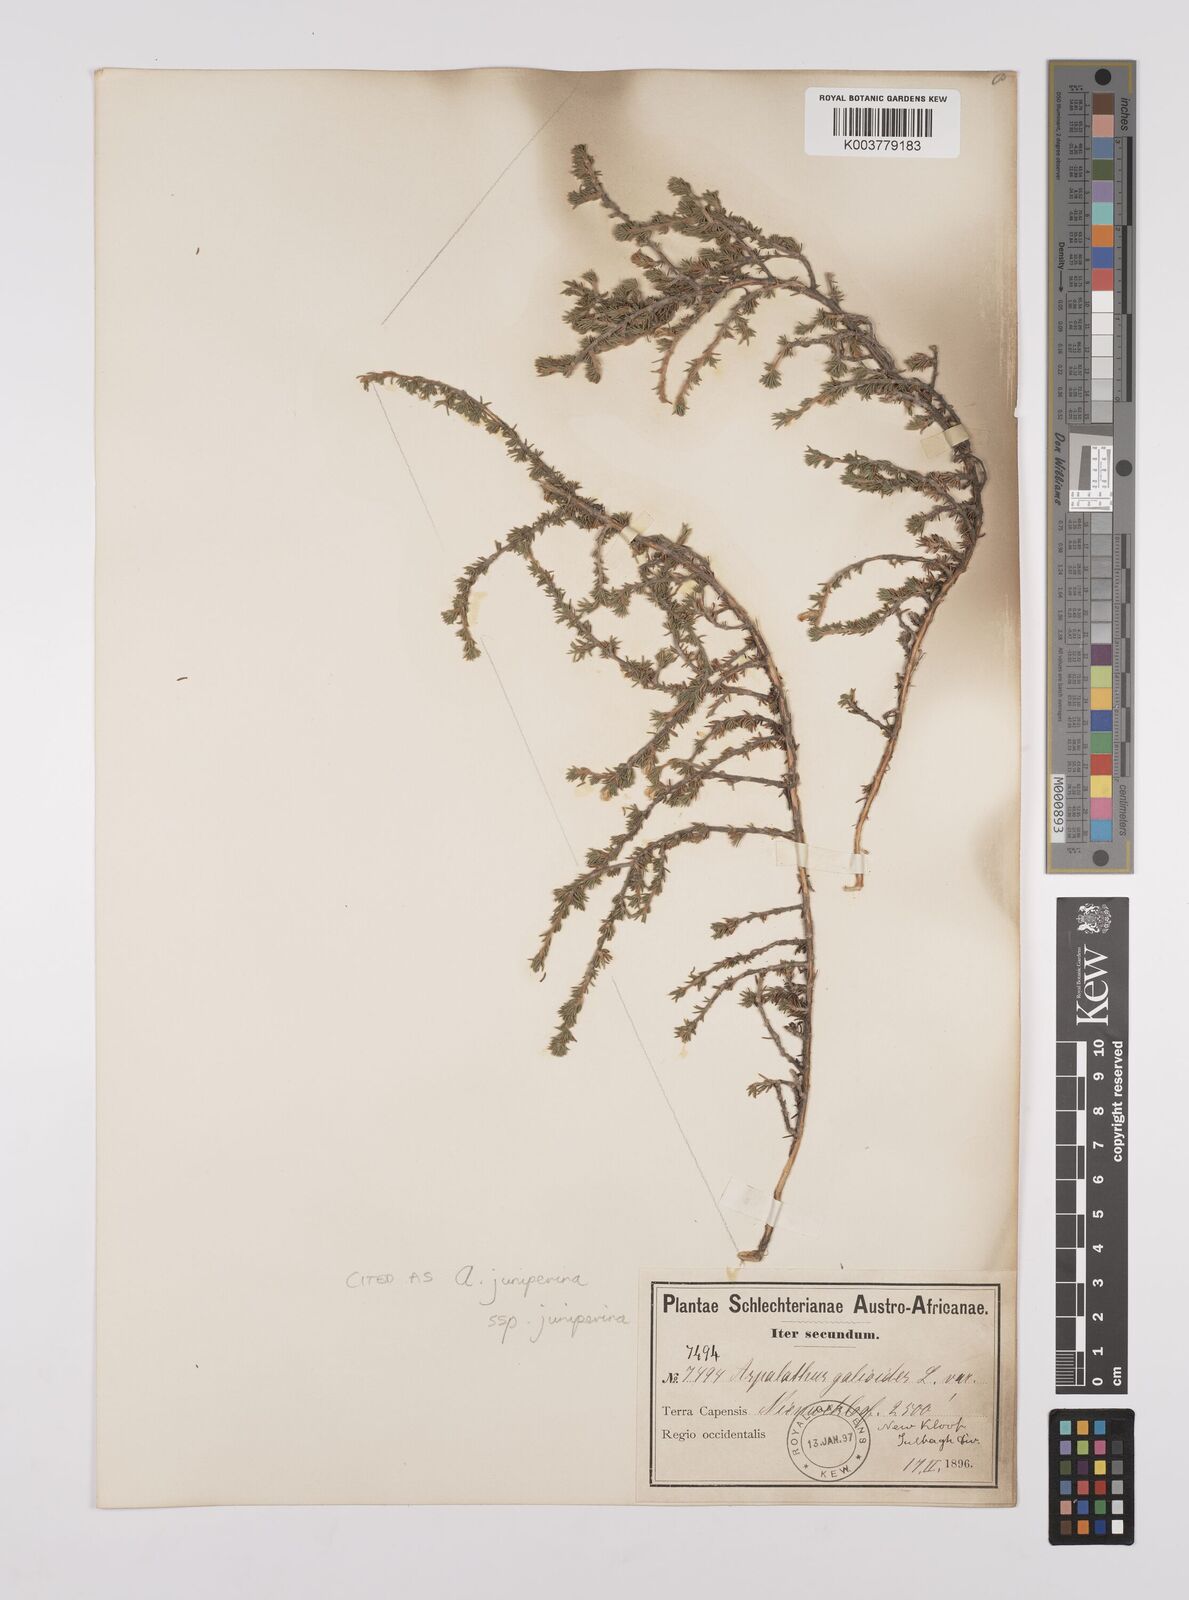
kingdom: Plantae
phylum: Tracheophyta
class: Magnoliopsida
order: Fabales
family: Fabaceae
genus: Aspalathus
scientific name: Aspalathus juniperina
